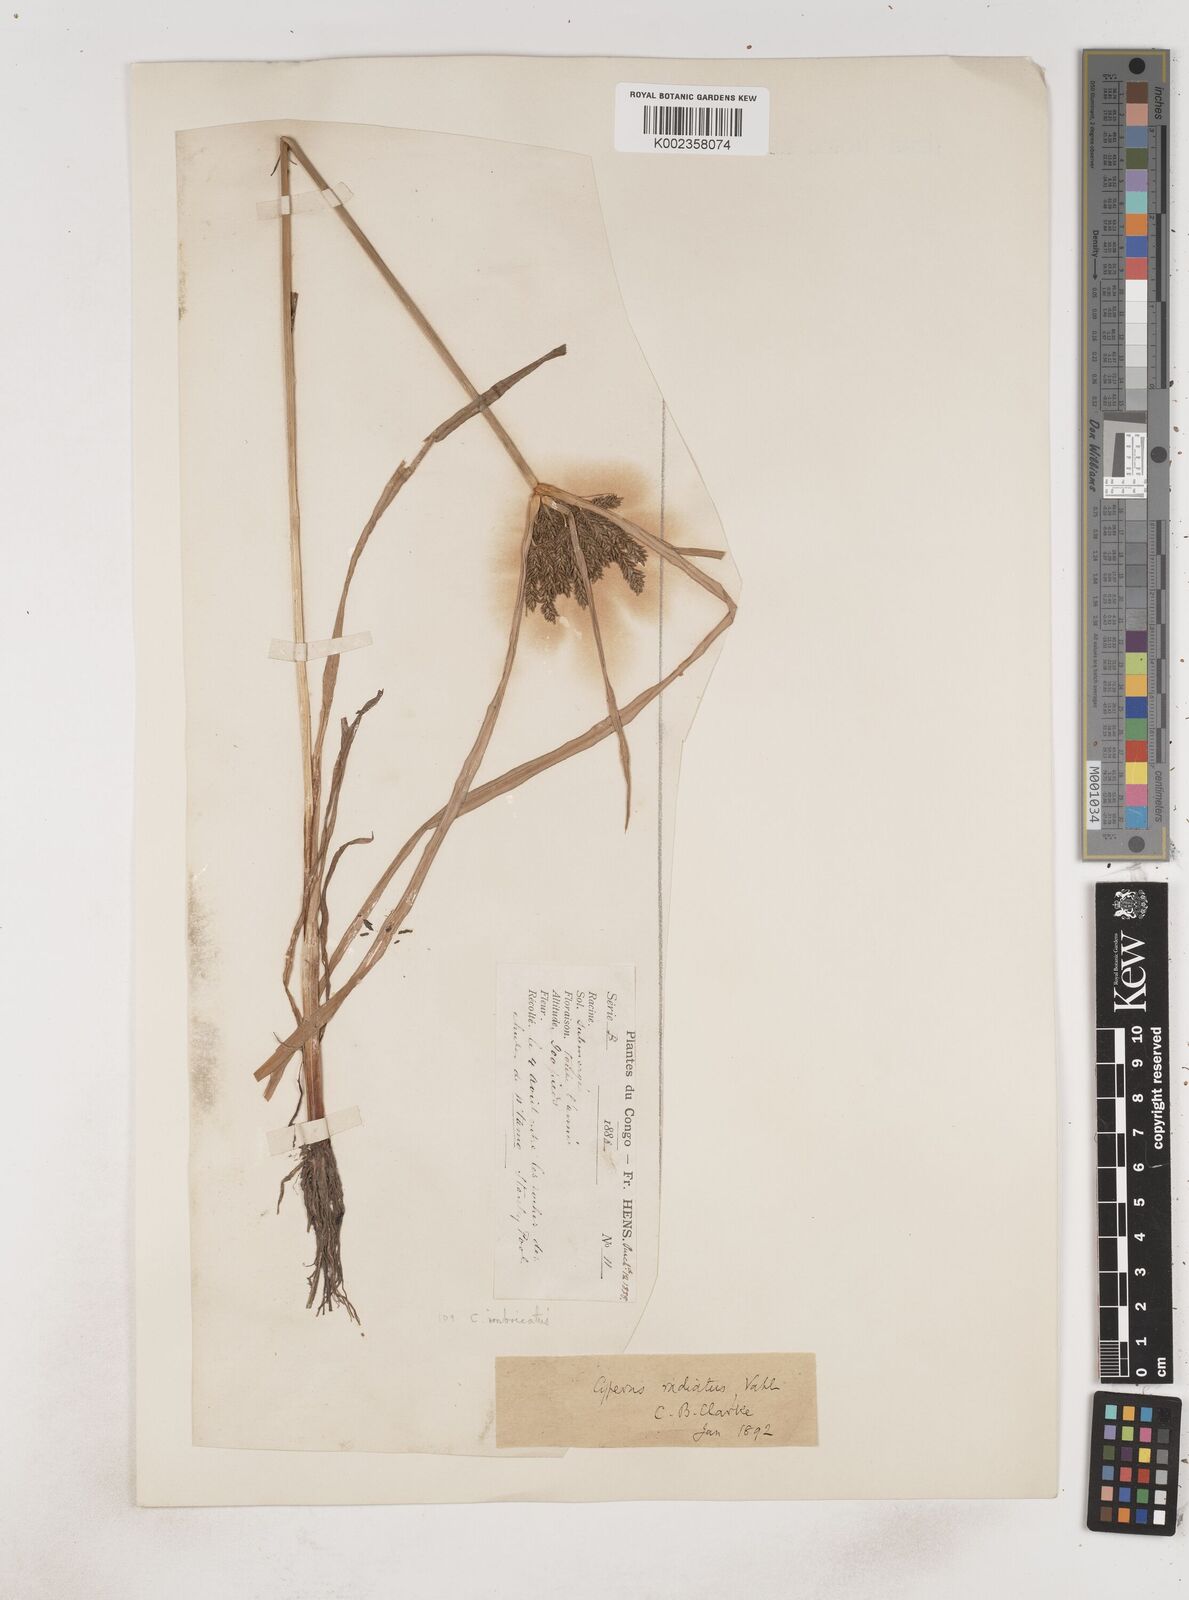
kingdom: Plantae
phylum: Tracheophyta
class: Liliopsida
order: Poales
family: Cyperaceae
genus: Cyperus
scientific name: Cyperus imbricatus
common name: Shingle flatsedge
